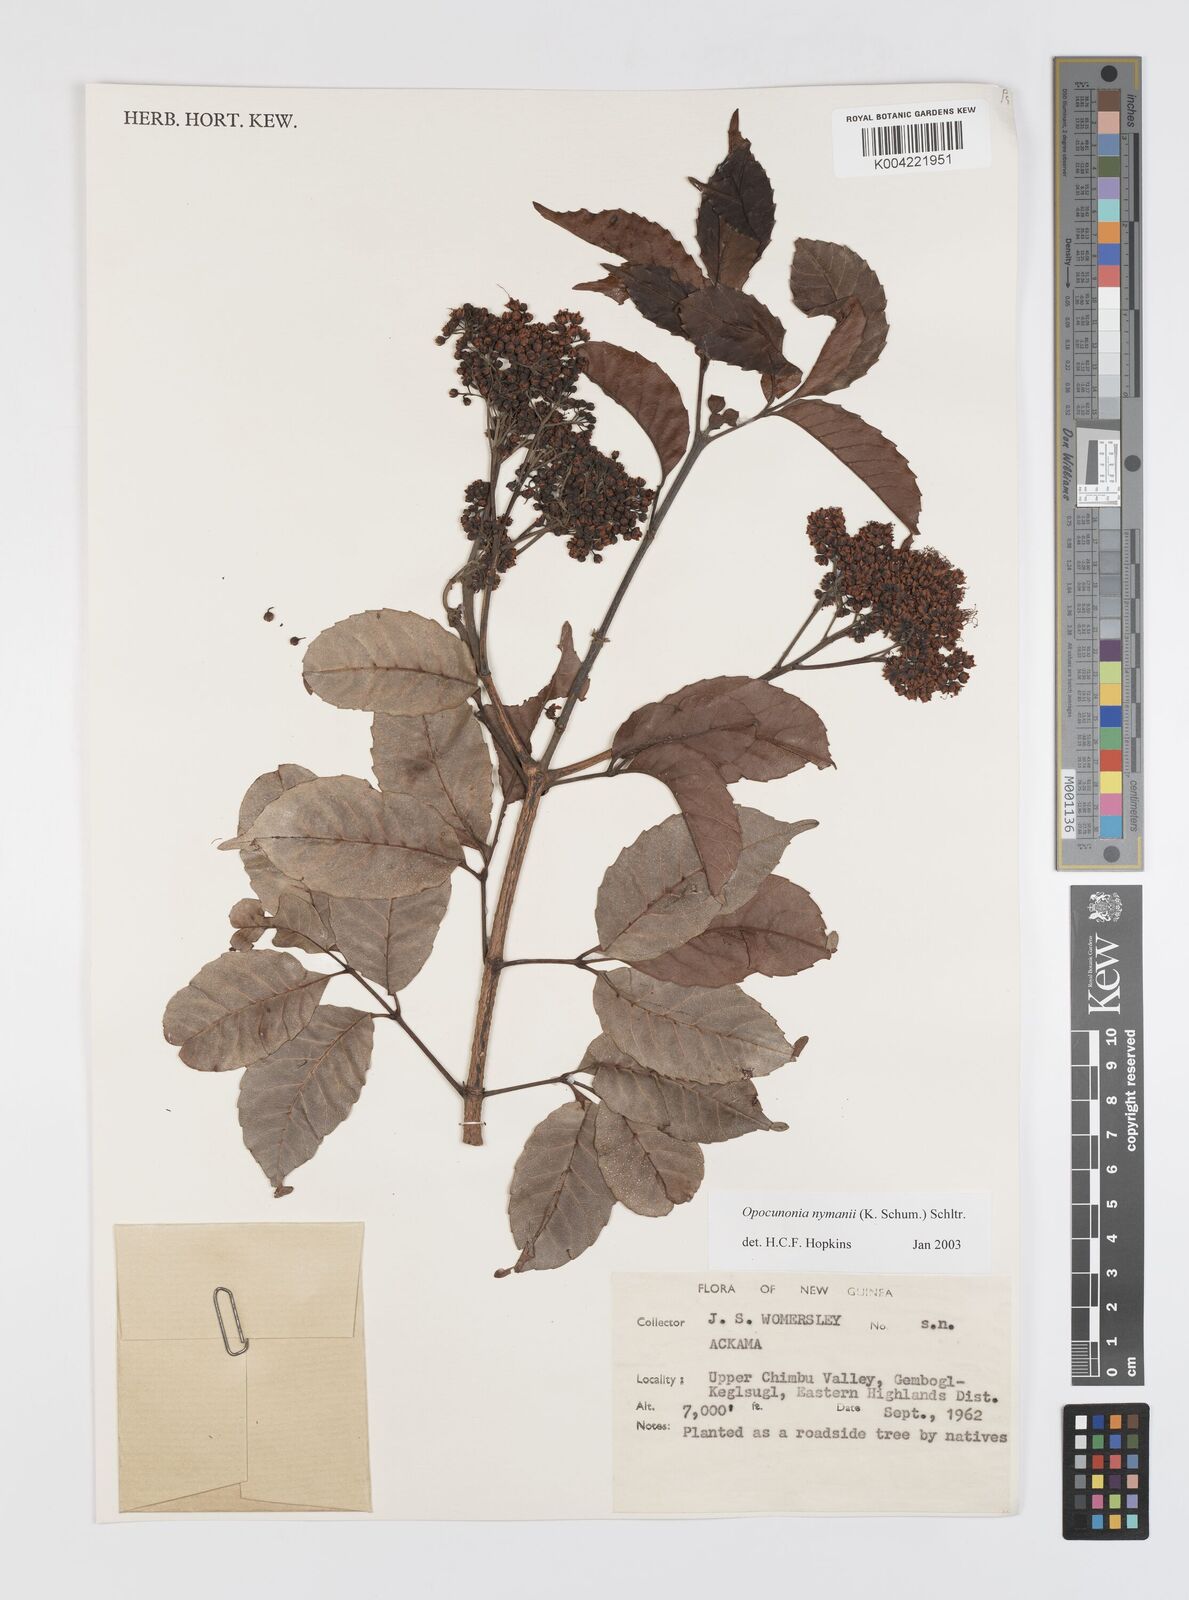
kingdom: Plantae
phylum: Tracheophyta
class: Magnoliopsida
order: Oxalidales
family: Cunoniaceae
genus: Opocunonia
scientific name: Opocunonia nymanii
